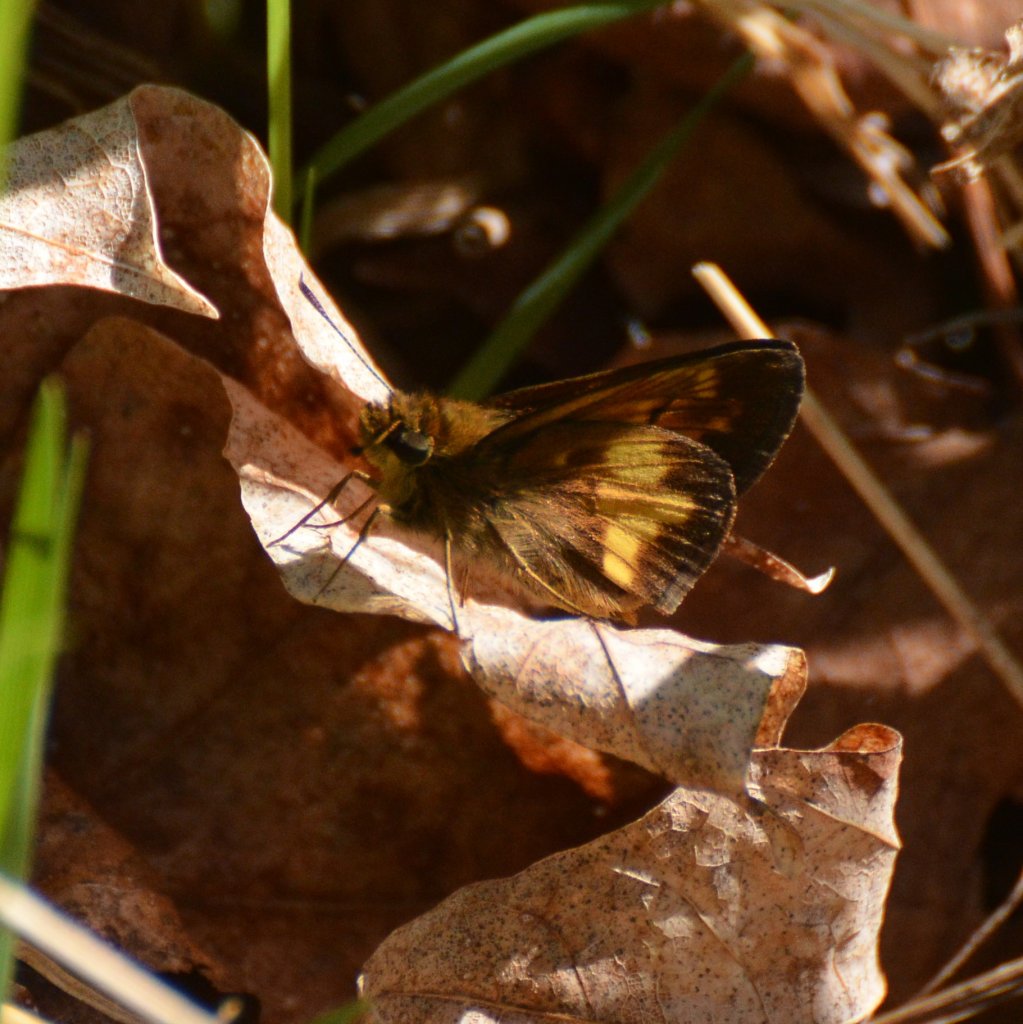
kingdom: Animalia
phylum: Arthropoda
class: Insecta
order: Lepidoptera
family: Hesperiidae
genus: Lon
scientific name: Lon hobomok
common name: Hobomok Skipper
